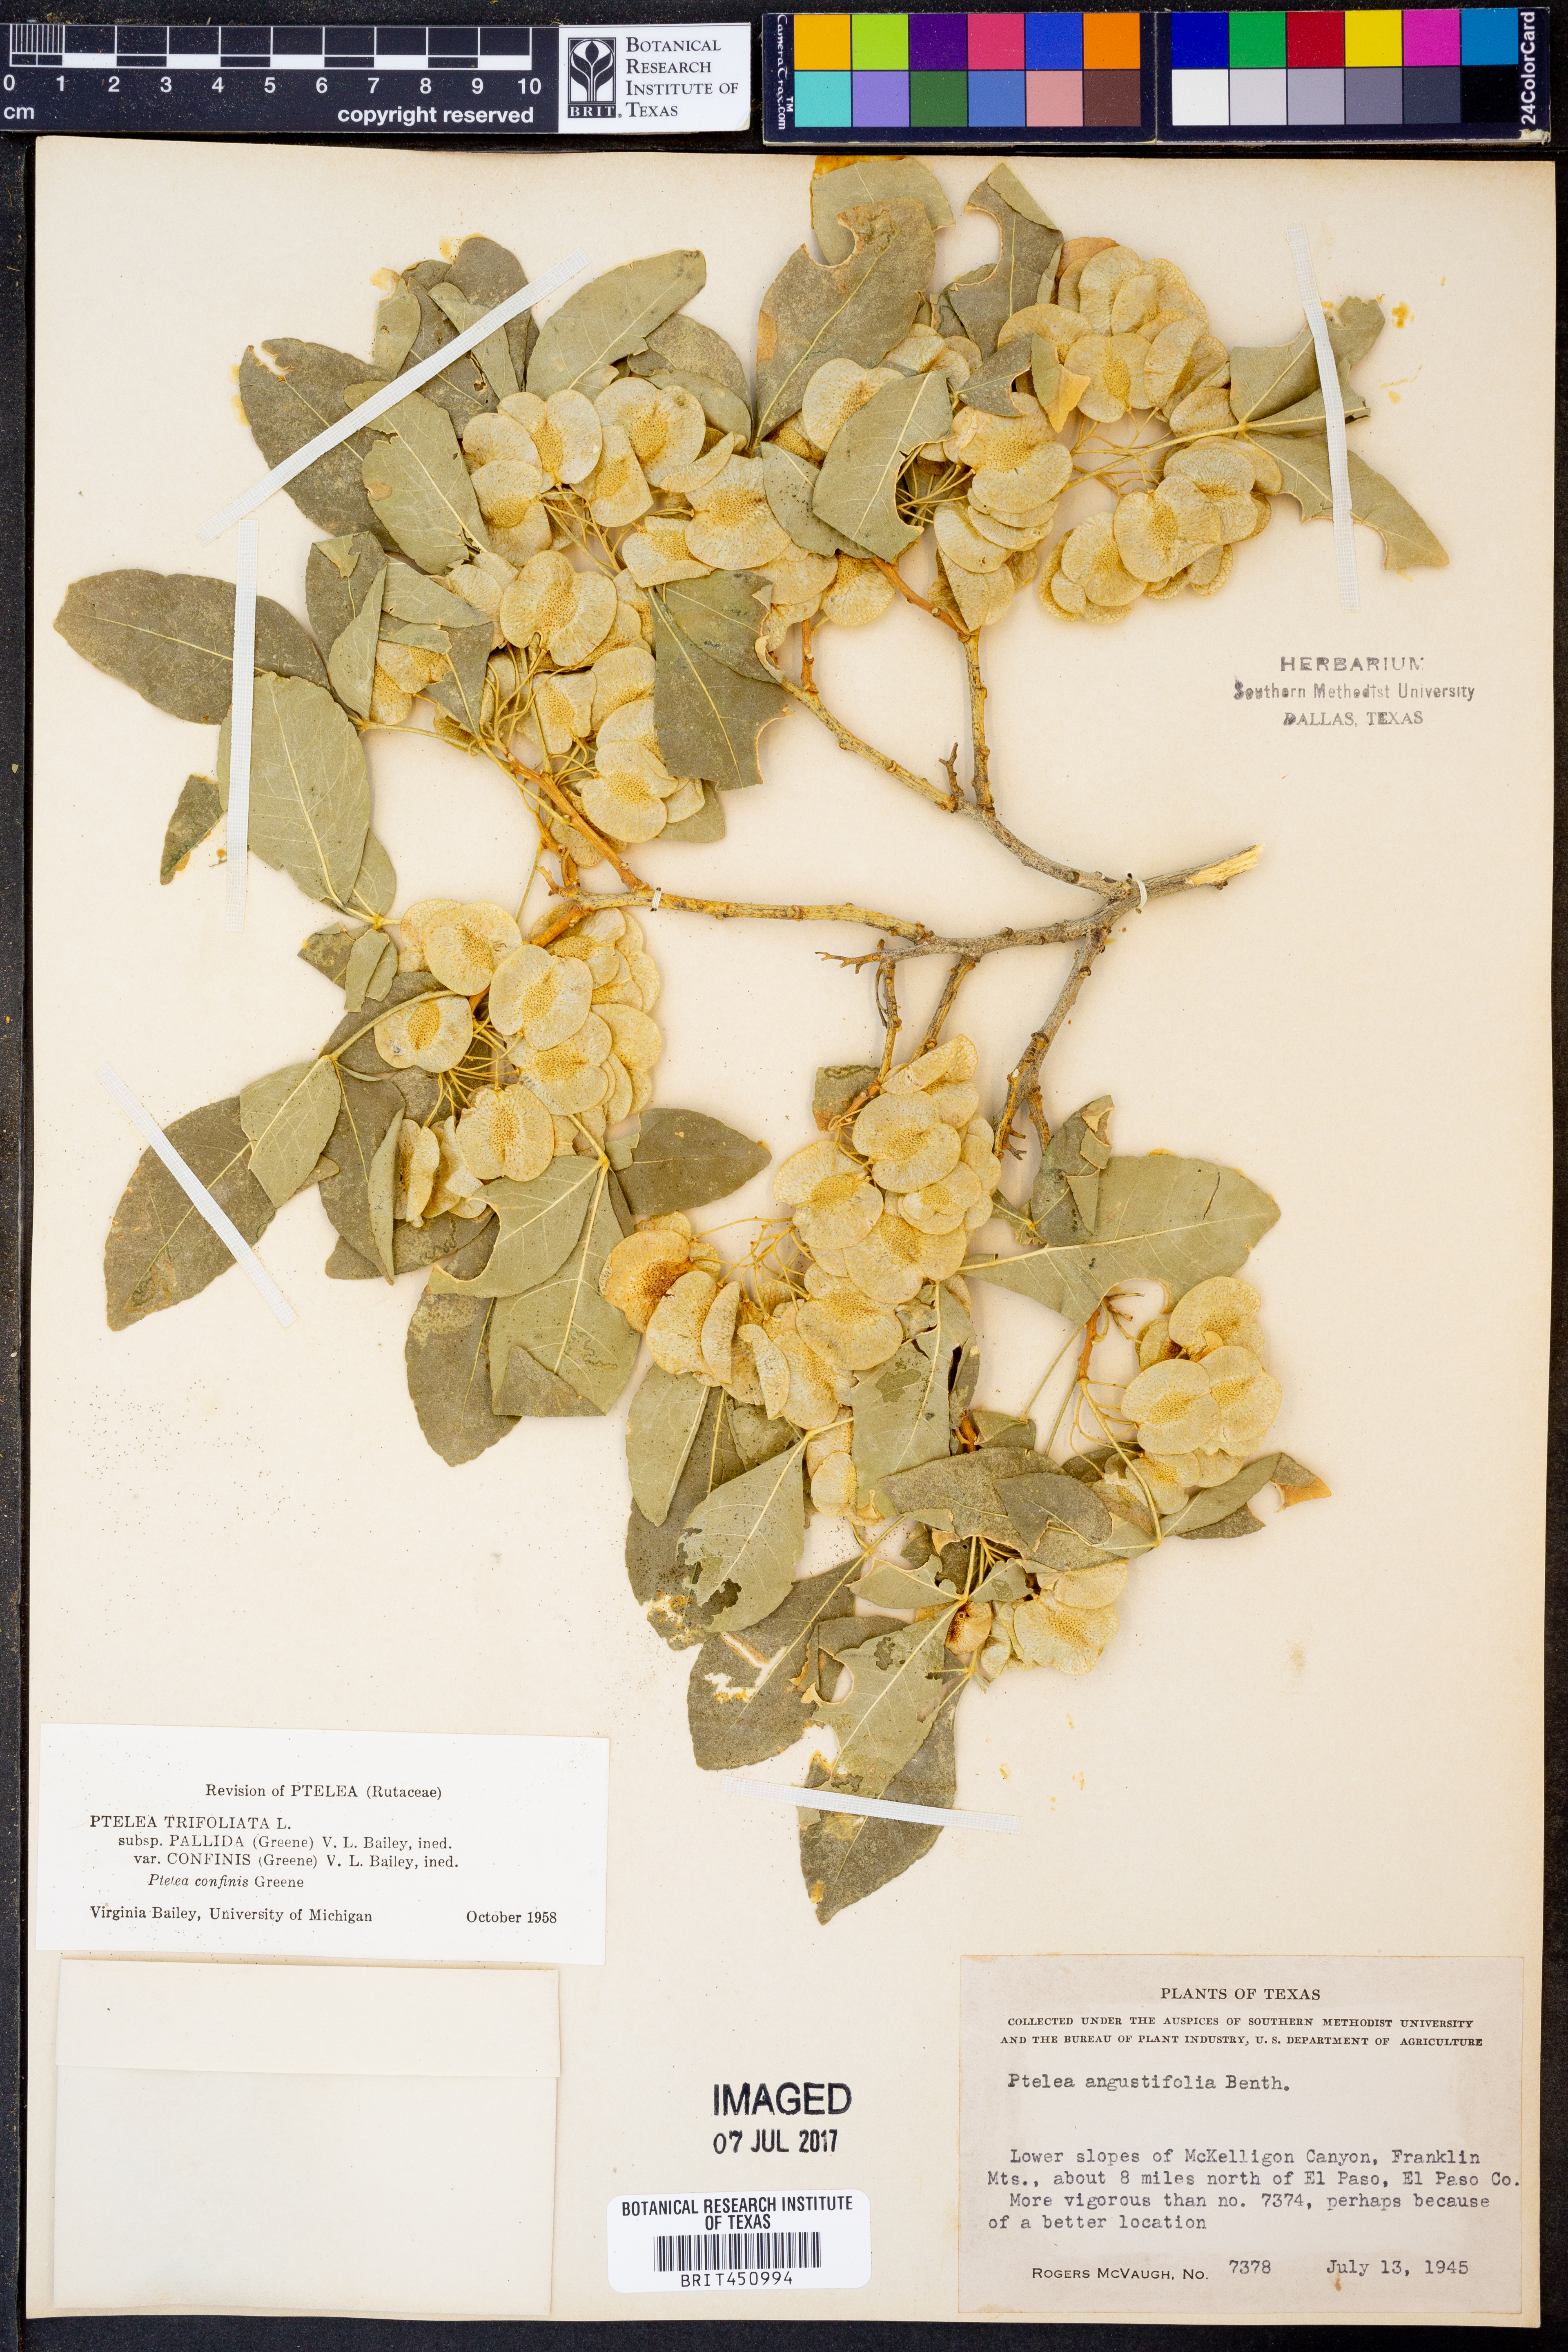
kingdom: Plantae
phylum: Tracheophyta
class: Magnoliopsida
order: Sapindales
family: Rutaceae
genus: Ptelea
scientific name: Ptelea trifoliata
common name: Common hop-tree
